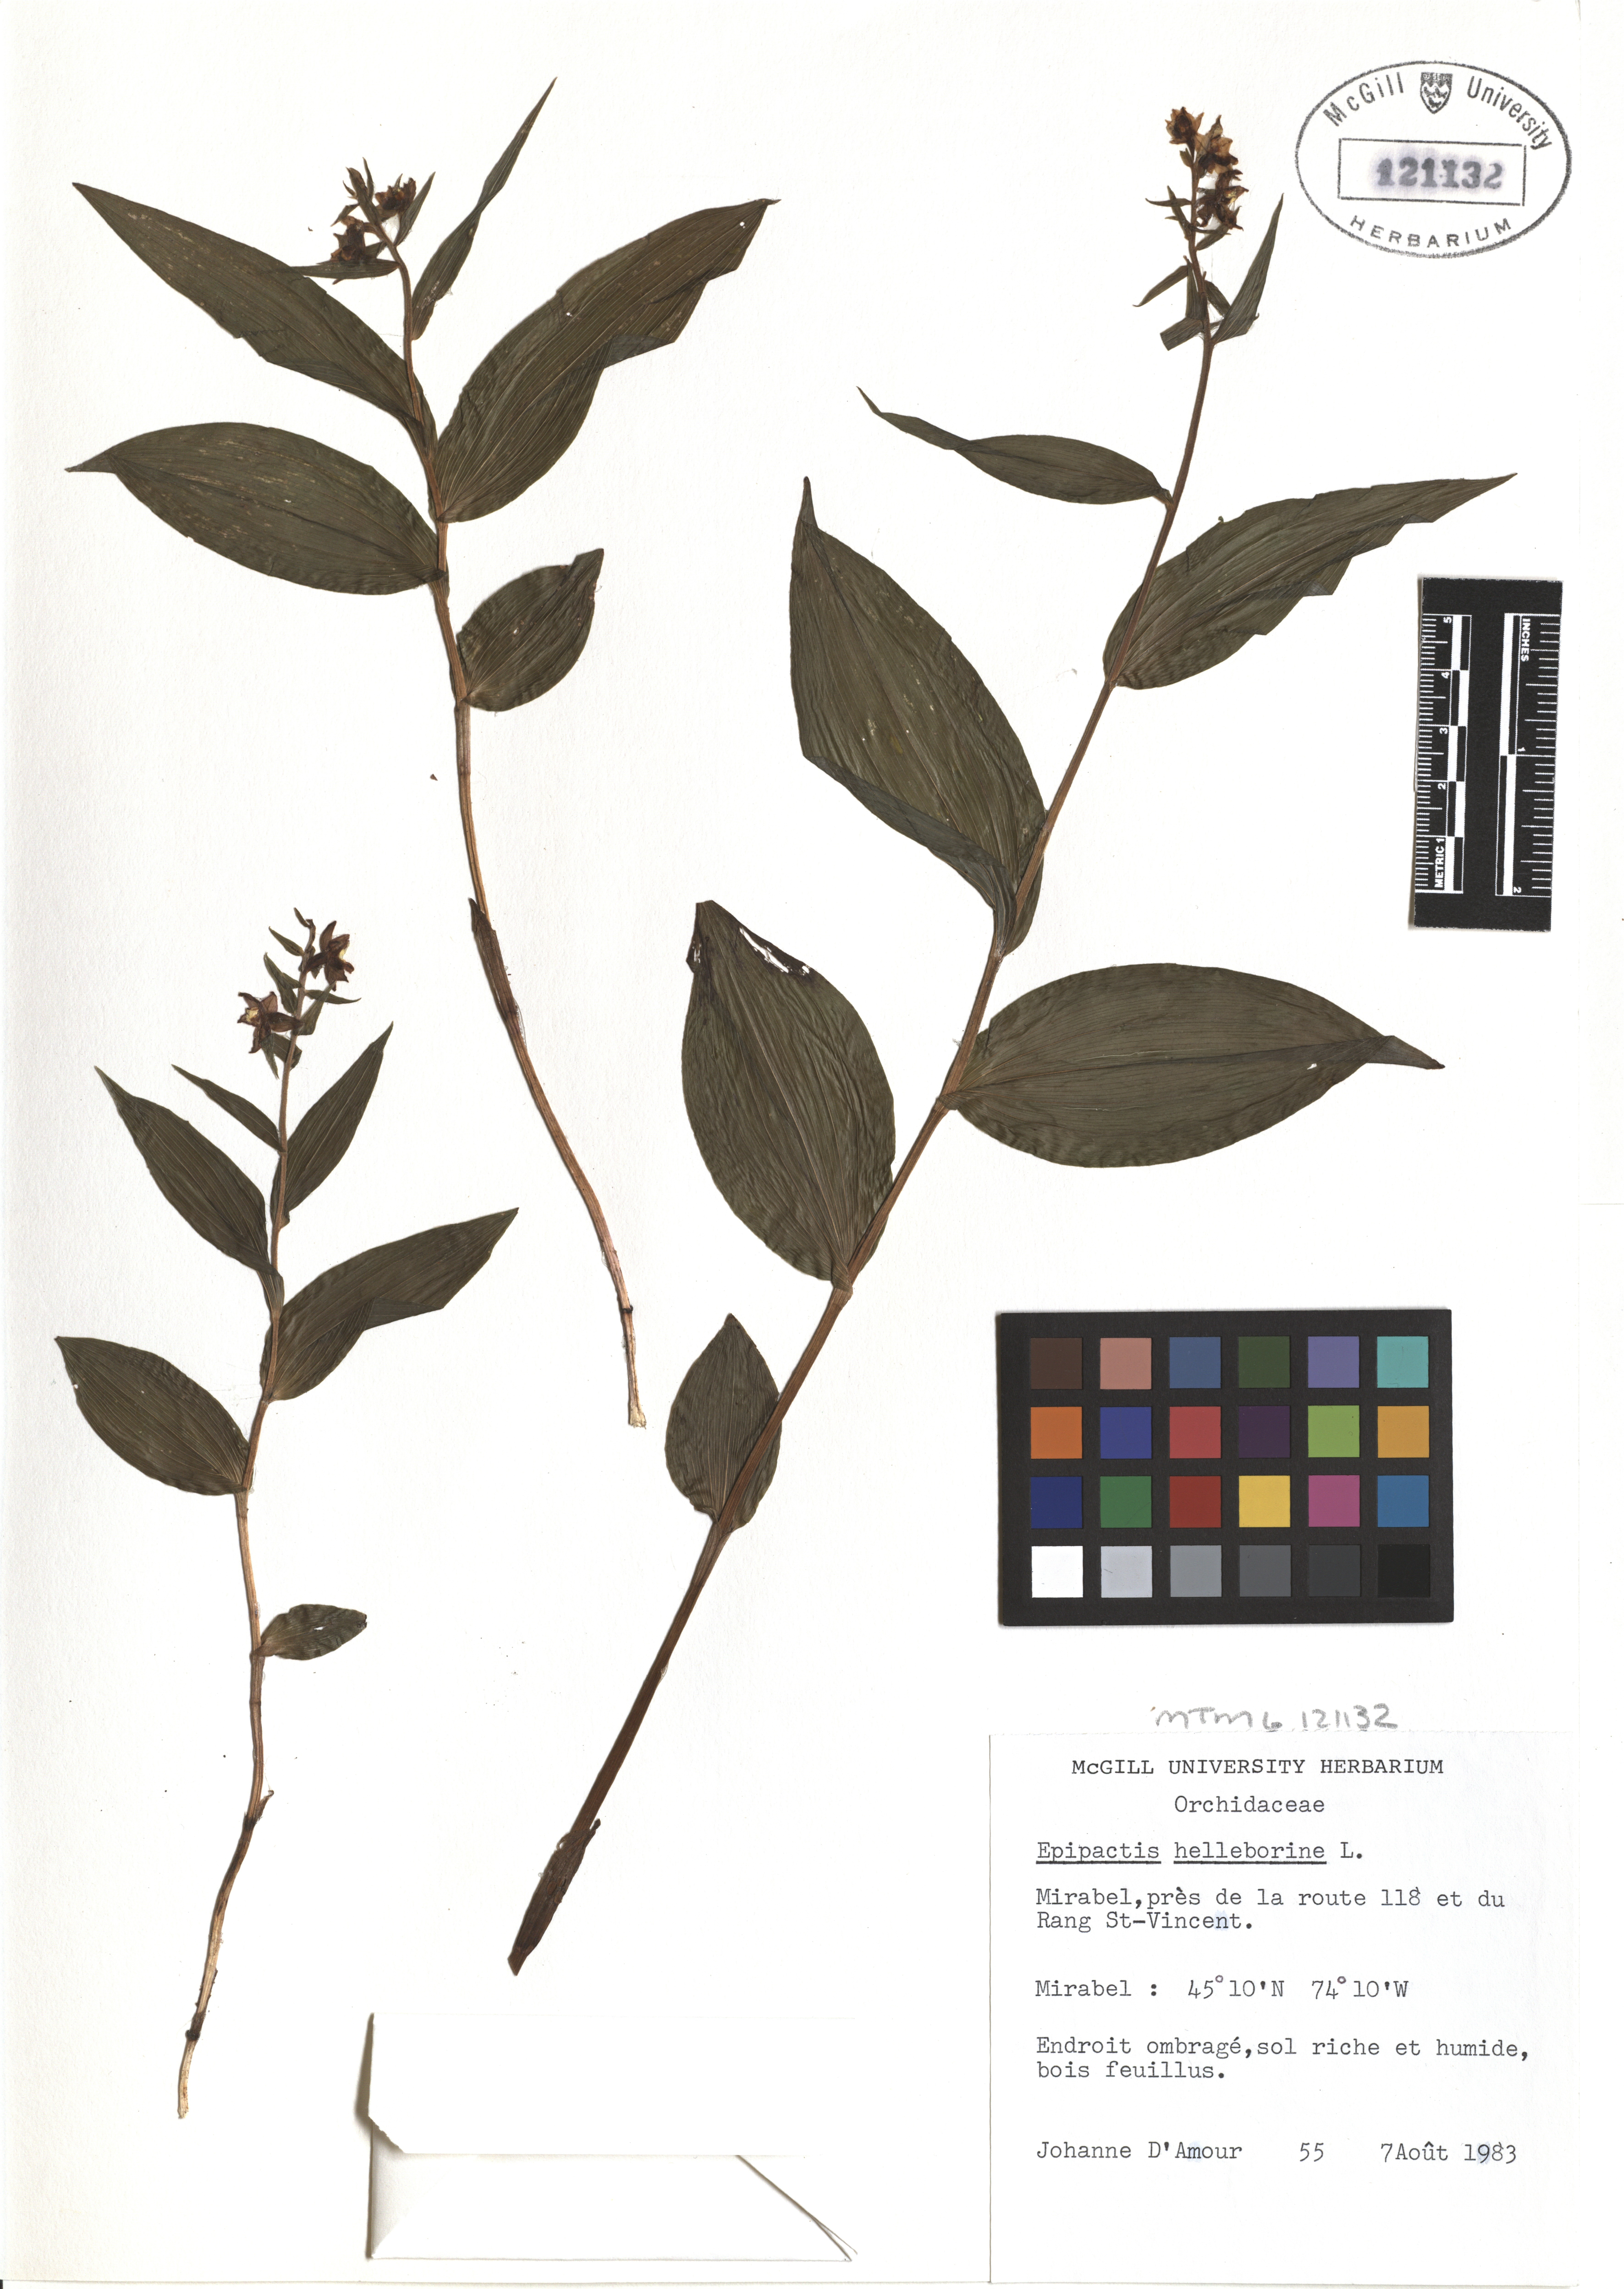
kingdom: Plantae
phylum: Tracheophyta
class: Liliopsida
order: Asparagales
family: Orchidaceae
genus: Epipactis
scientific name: Epipactis helleborine
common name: Broad-leaved helleborine
